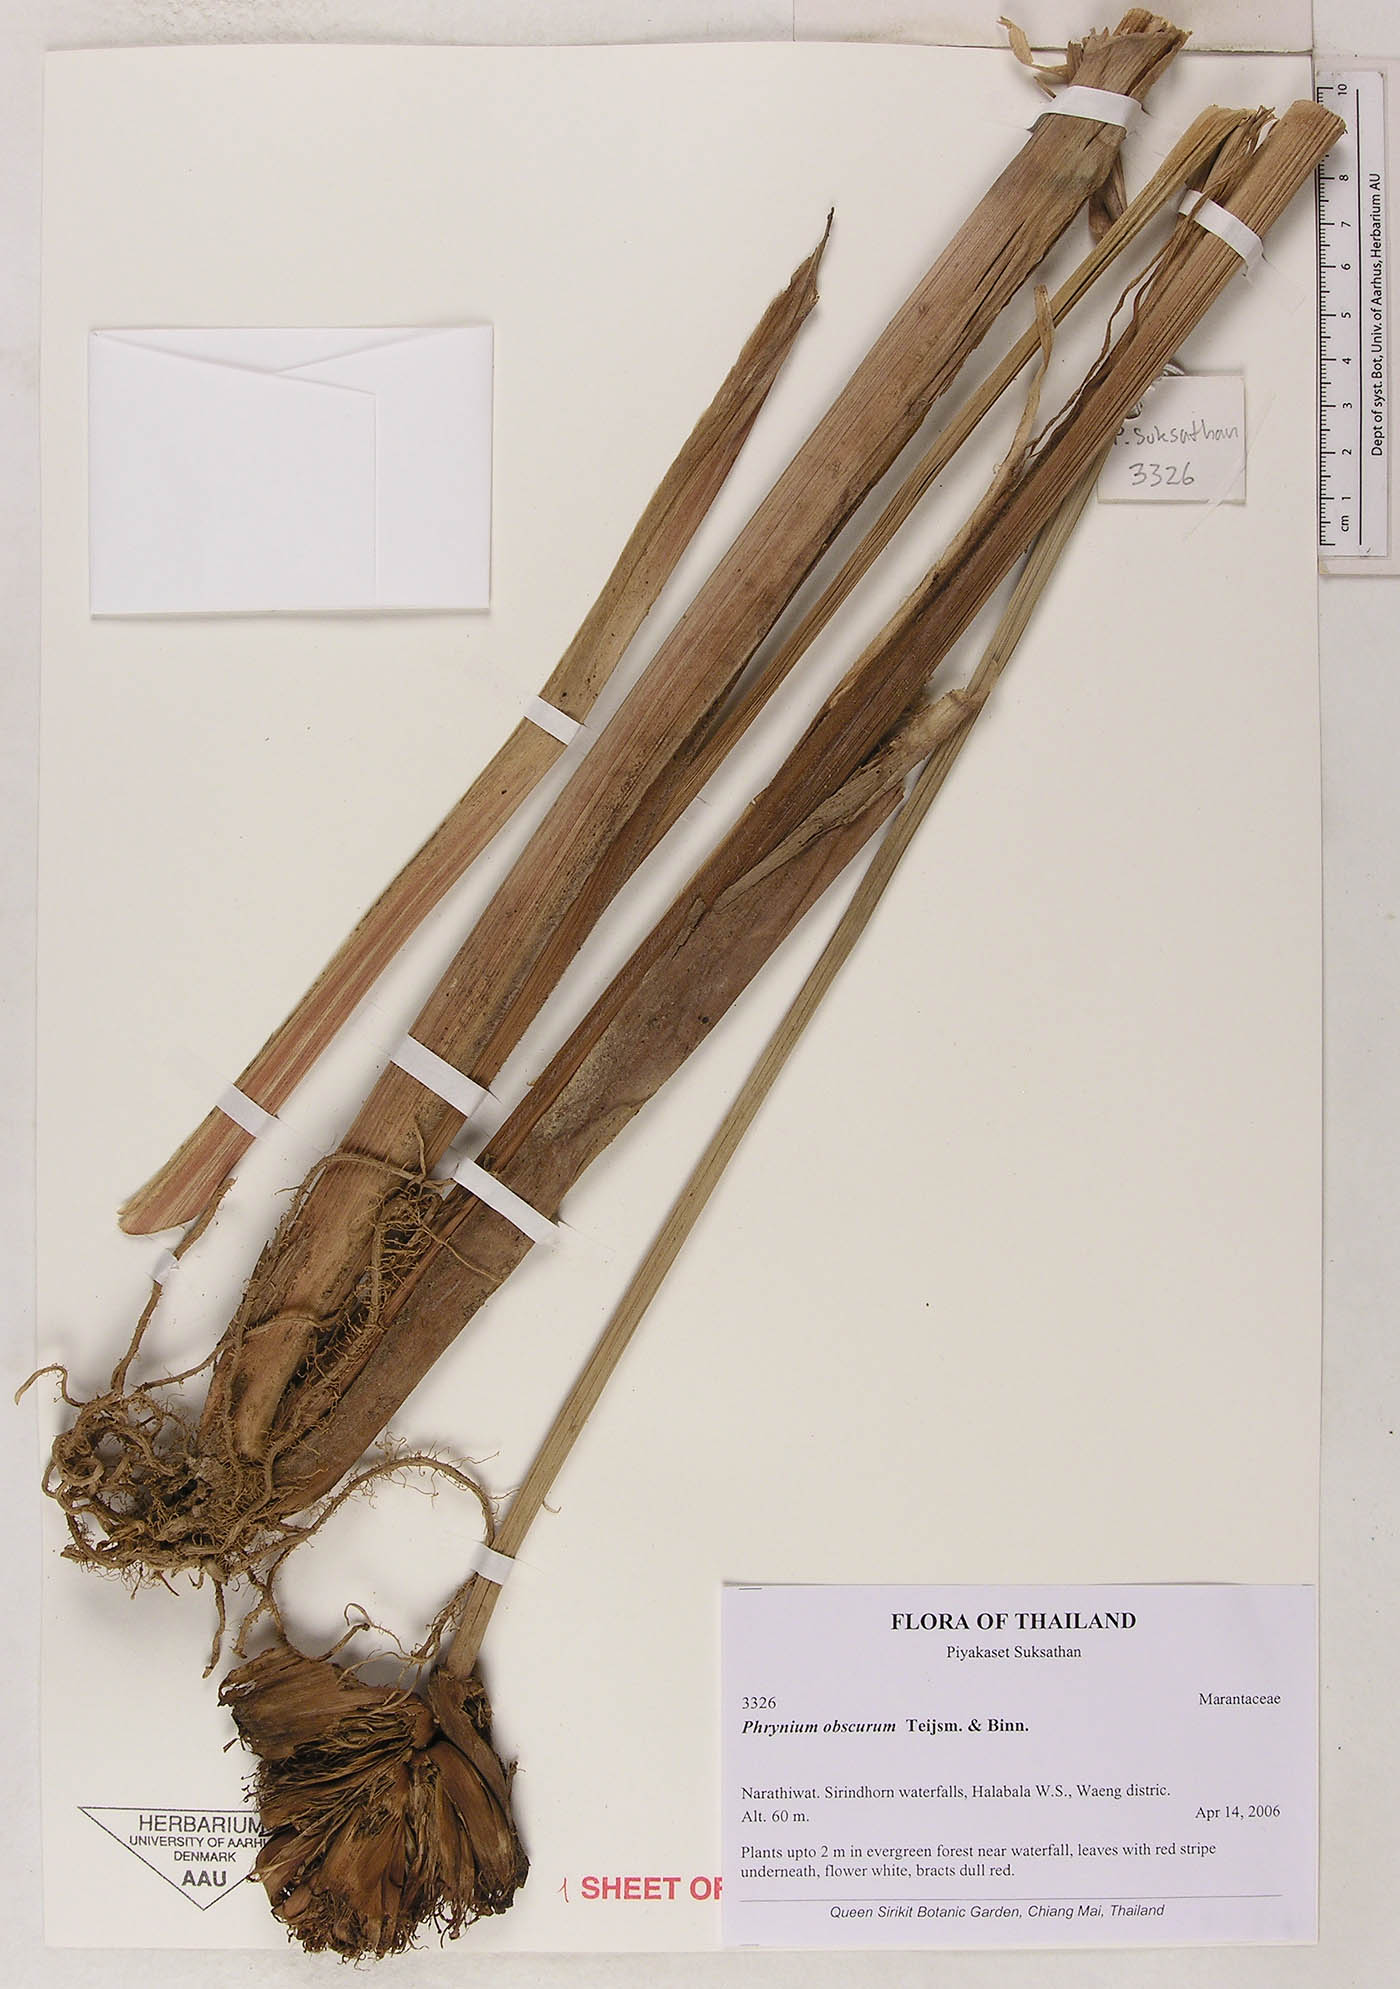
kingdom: Plantae
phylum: Tracheophyta
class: Liliopsida
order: Zingiberales
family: Marantaceae
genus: Phrynium
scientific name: Phrynium obscurum
